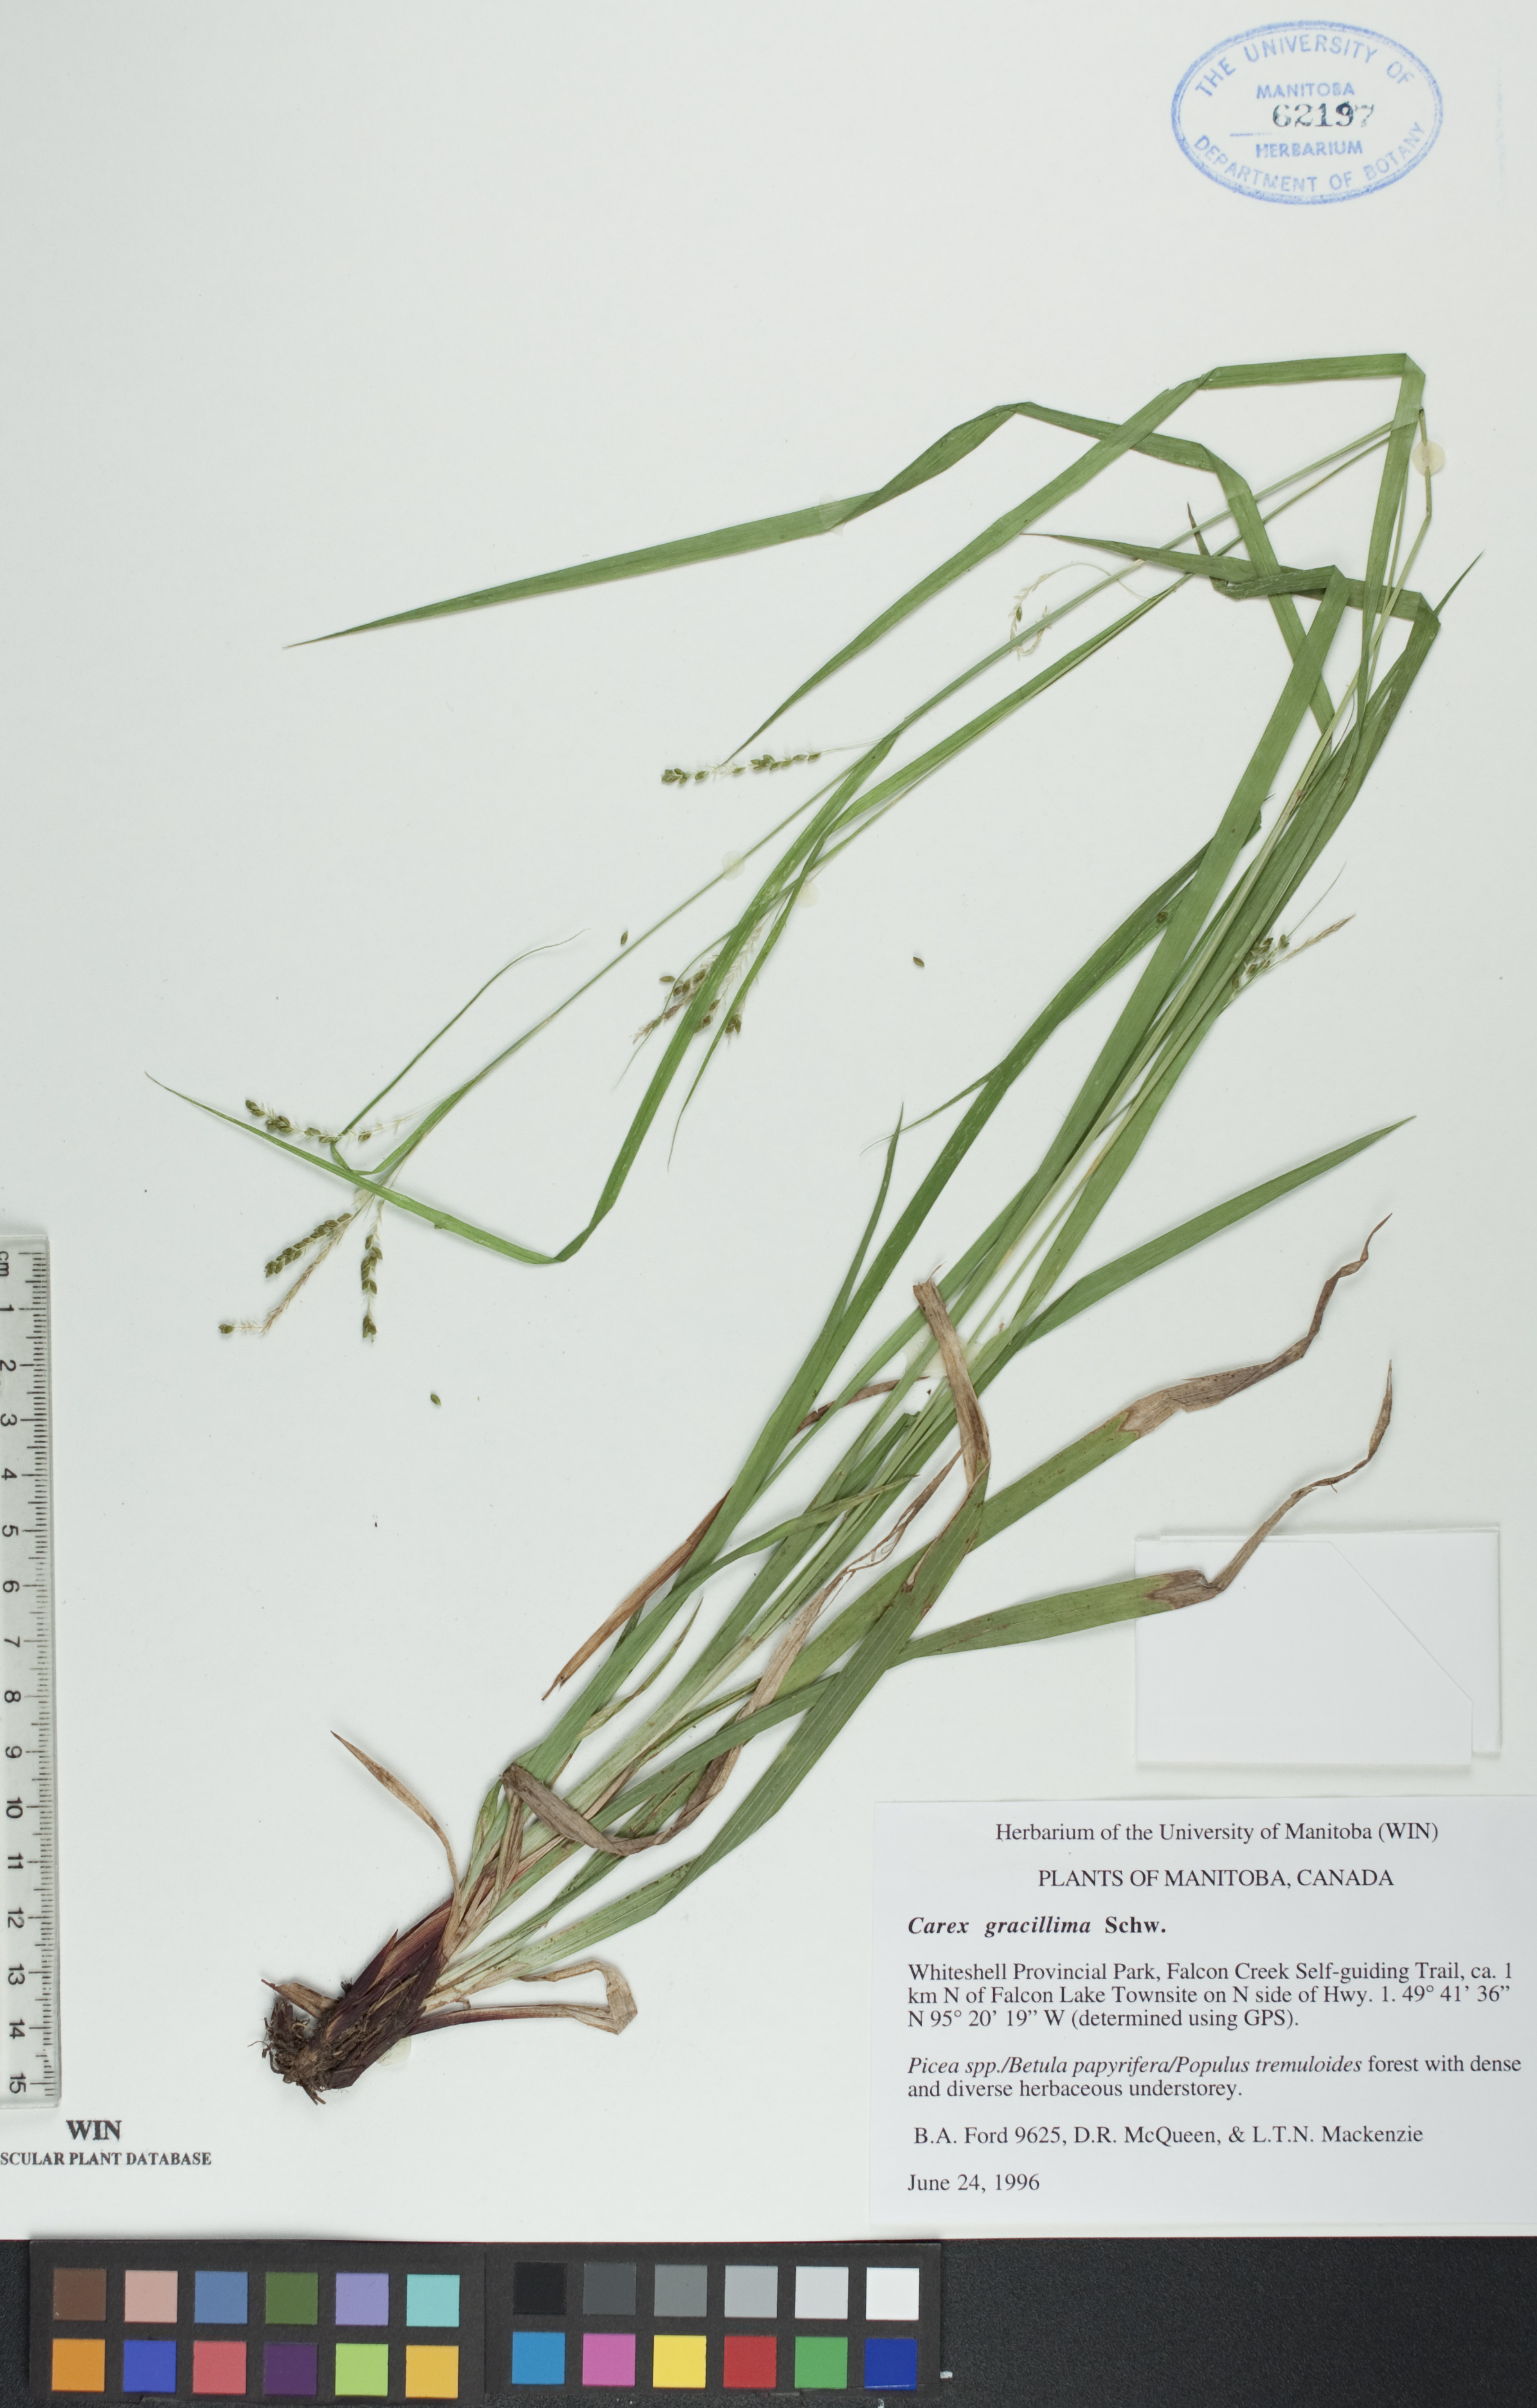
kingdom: Plantae
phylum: Tracheophyta
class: Liliopsida
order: Poales
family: Cyperaceae
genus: Carex
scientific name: Carex gracillima
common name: Graceful sedge
